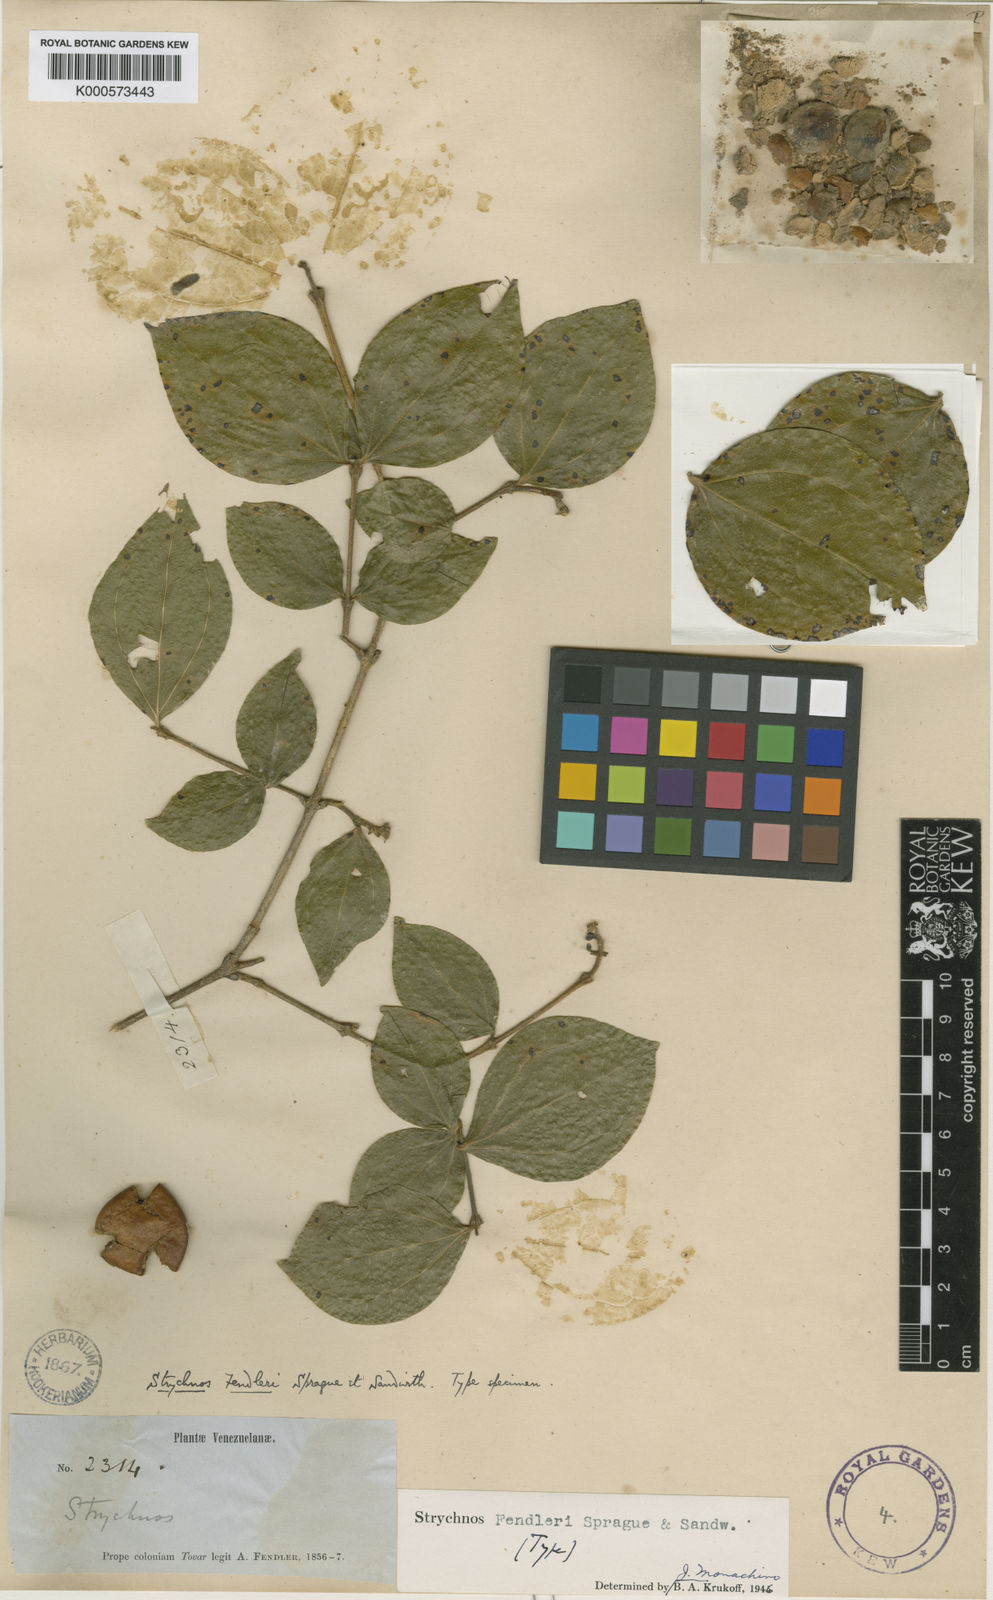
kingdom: Plantae
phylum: Tracheophyta
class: Magnoliopsida
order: Gentianales
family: Loganiaceae
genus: Strychnos
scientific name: Strychnos fendleri
